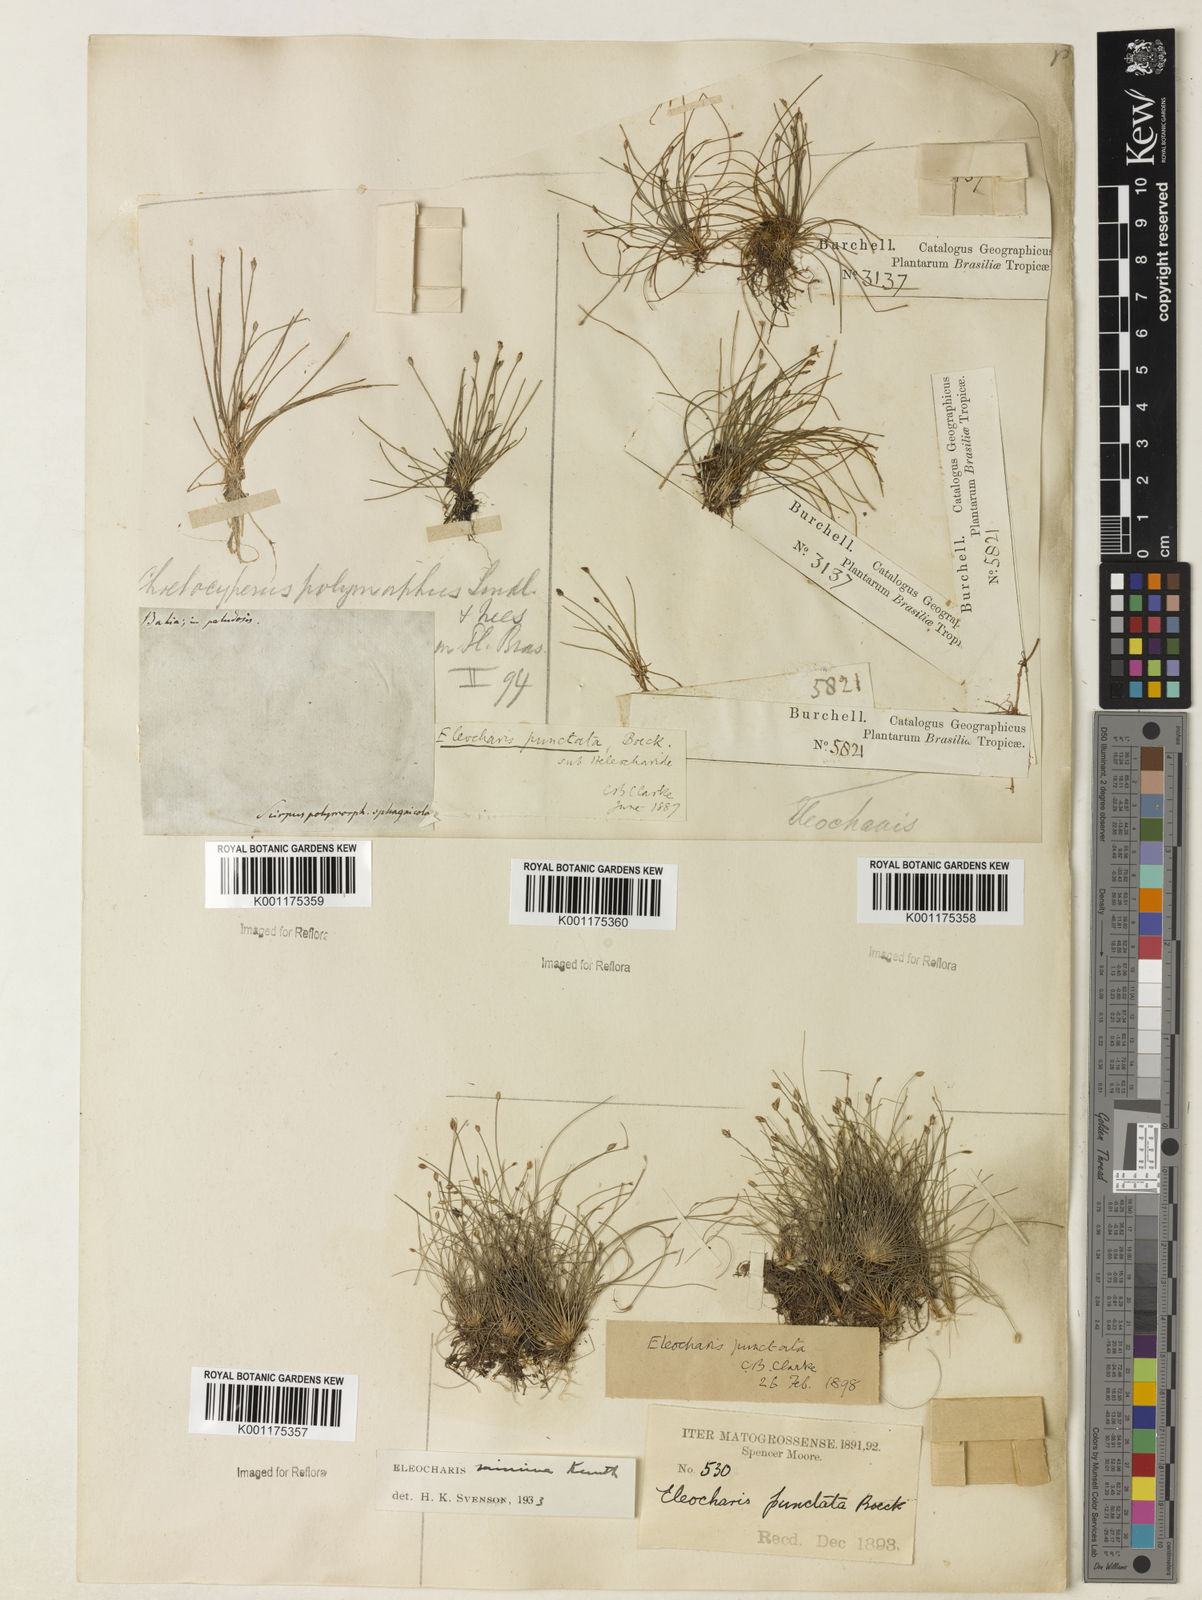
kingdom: Plantae
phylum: Tracheophyta
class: Liliopsida
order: Poales
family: Cyperaceae
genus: Eleocharis
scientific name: Eleocharis nana
